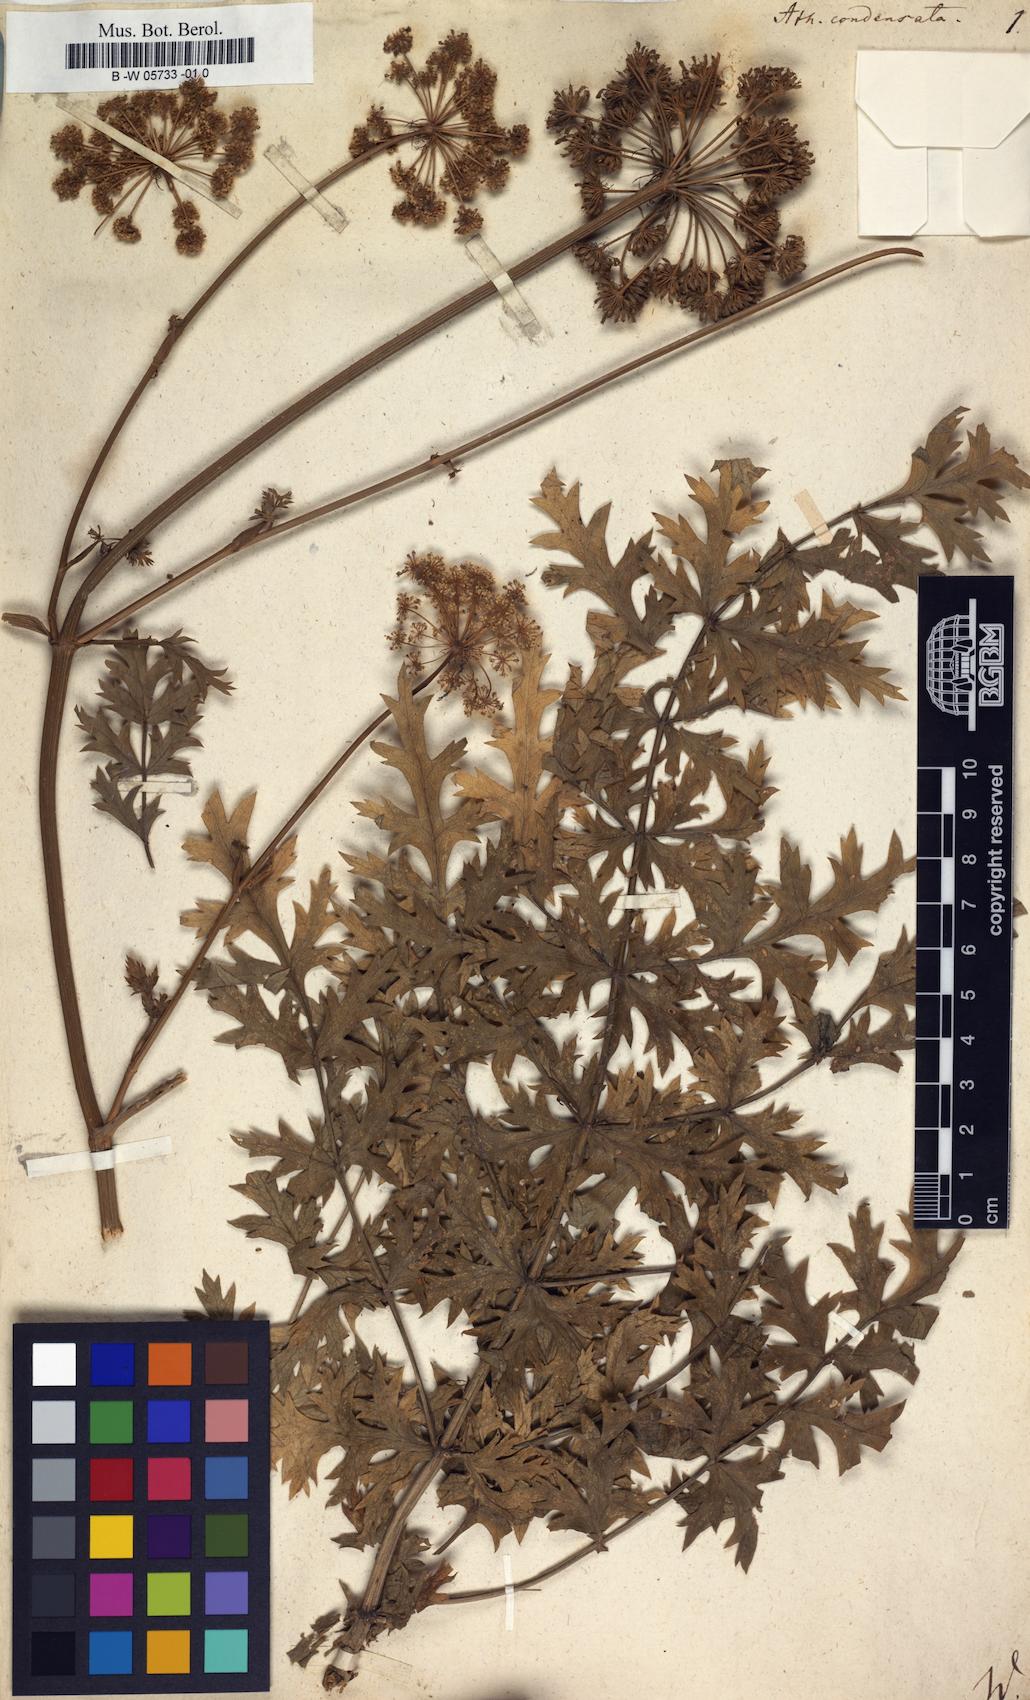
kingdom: Plantae
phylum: Tracheophyta
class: Magnoliopsida
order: Apiales
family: Apiaceae
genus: Seseli
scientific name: Seseli condensatum
